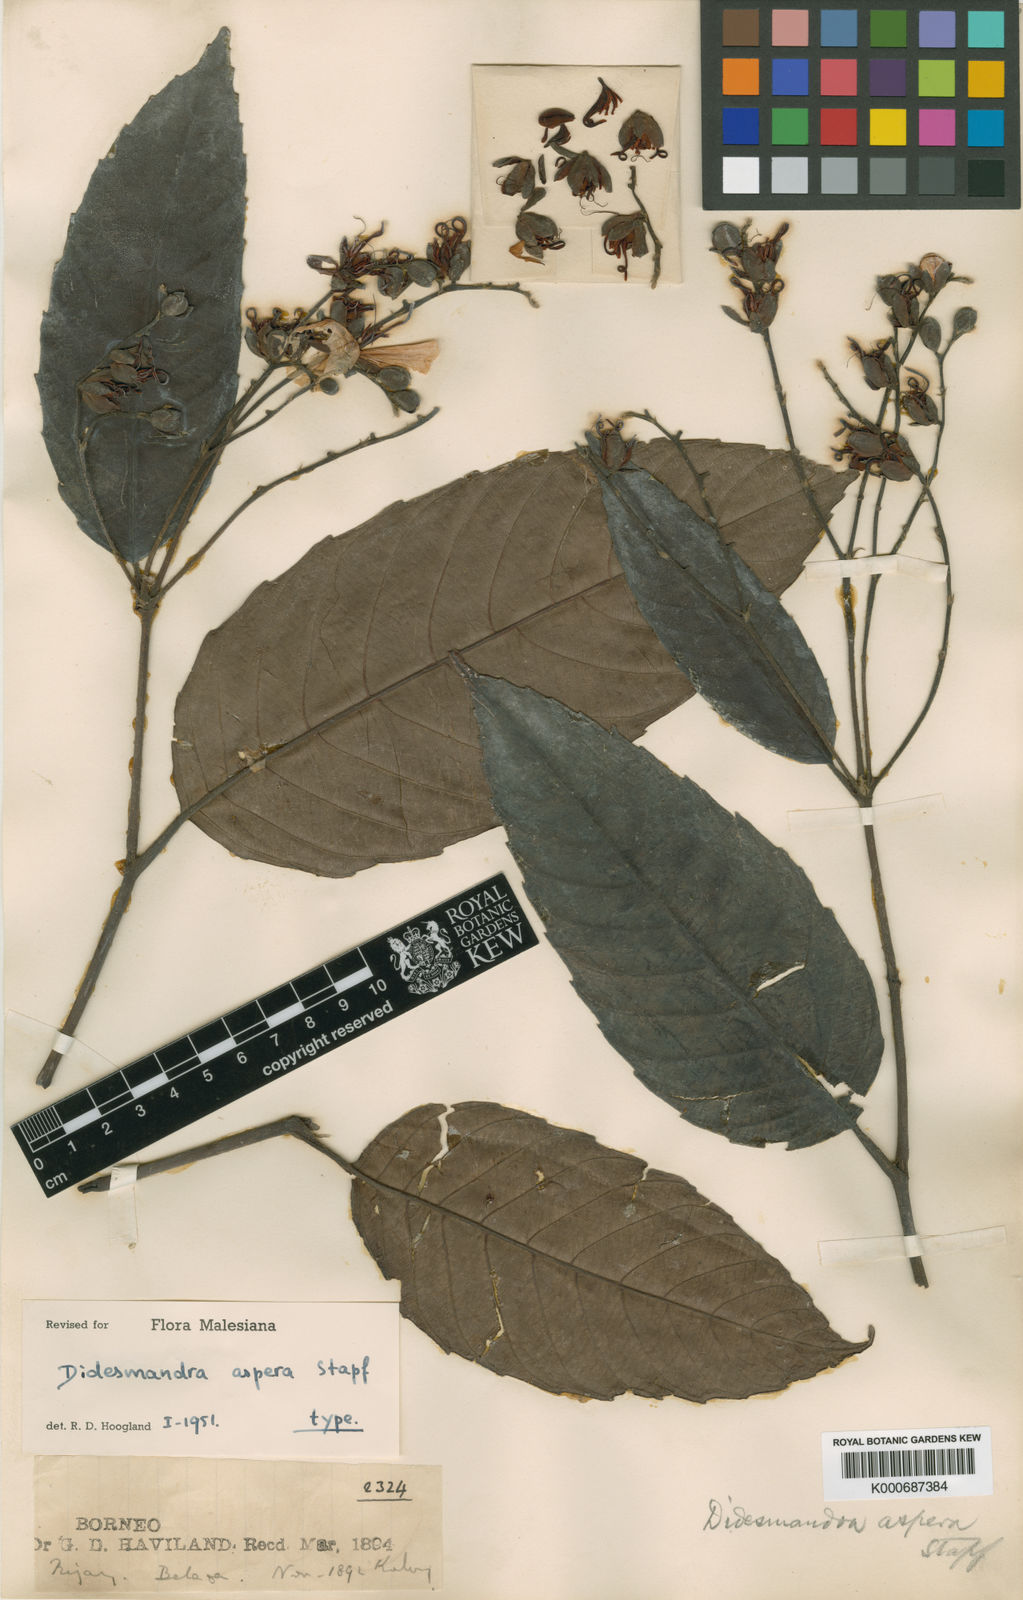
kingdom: Plantae
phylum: Tracheophyta
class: Magnoliopsida
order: Dilleniales
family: Dilleniaceae
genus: Didesmandra
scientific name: Didesmandra aspera
